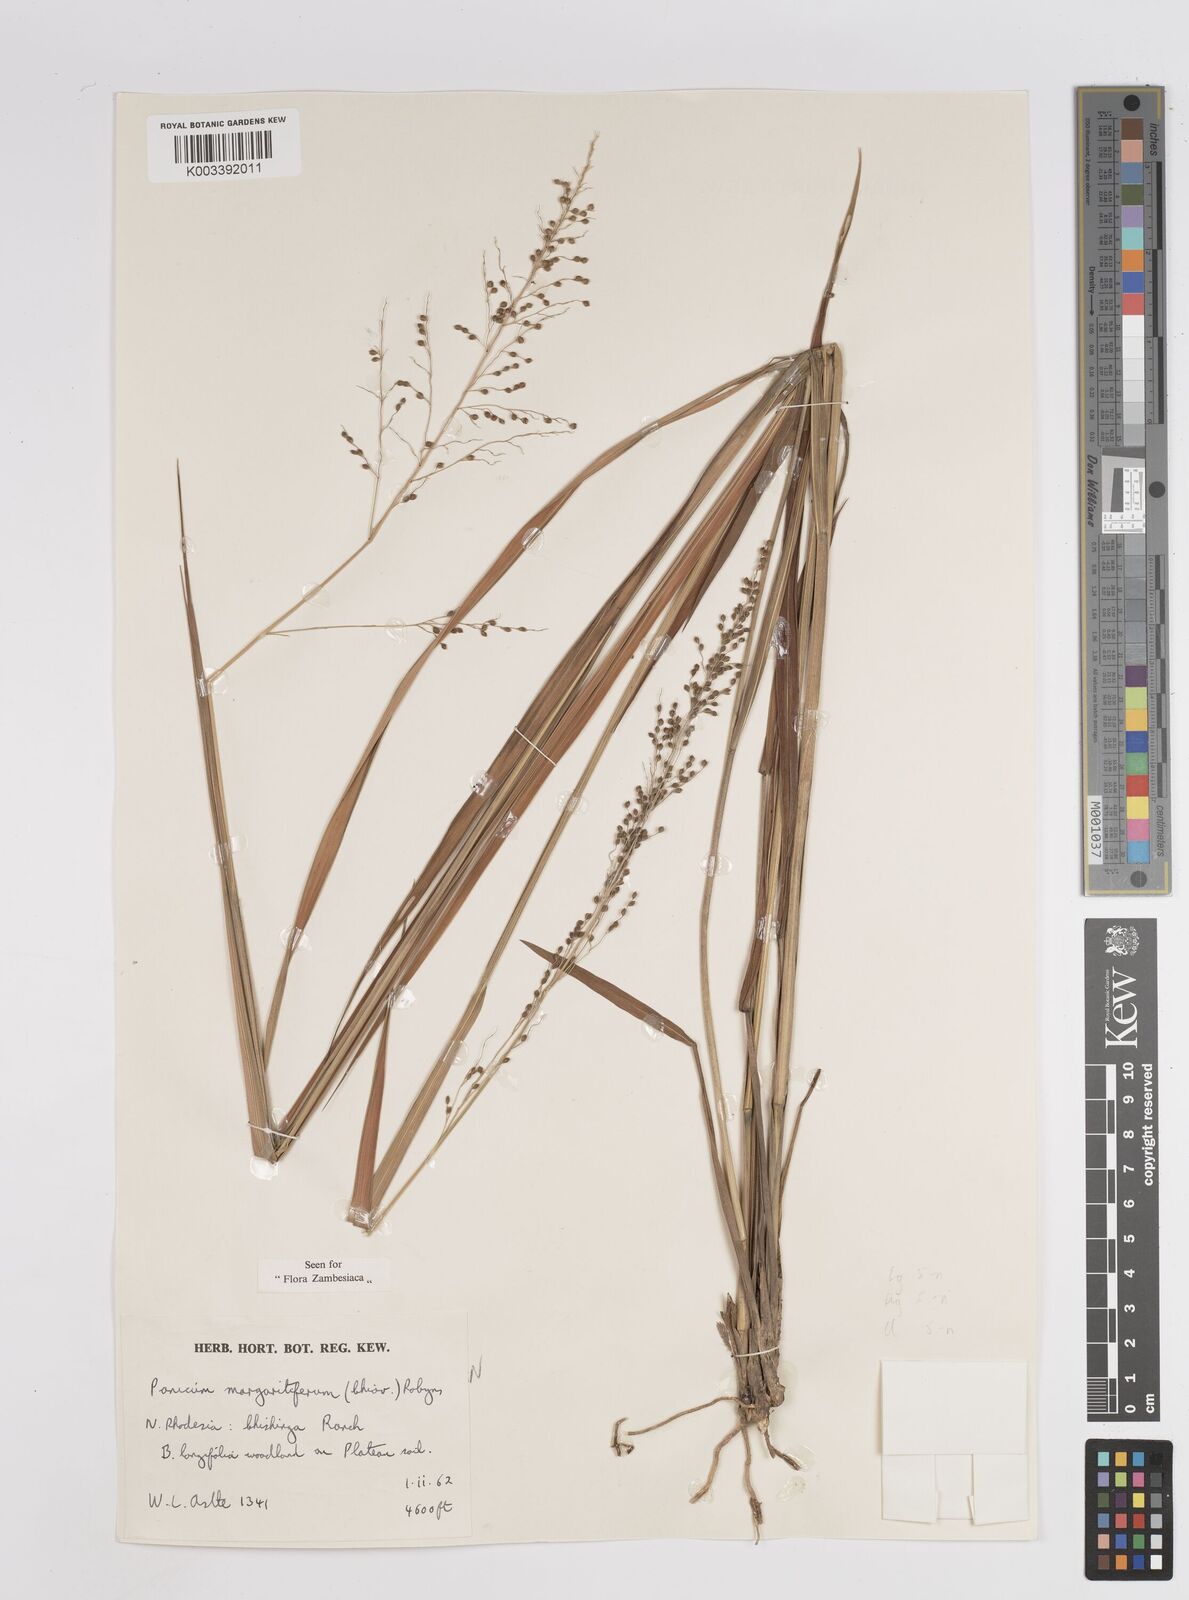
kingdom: Plantae
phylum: Tracheophyta
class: Liliopsida
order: Poales
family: Poaceae
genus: Sacciolepis
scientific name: Sacciolepis myuros
